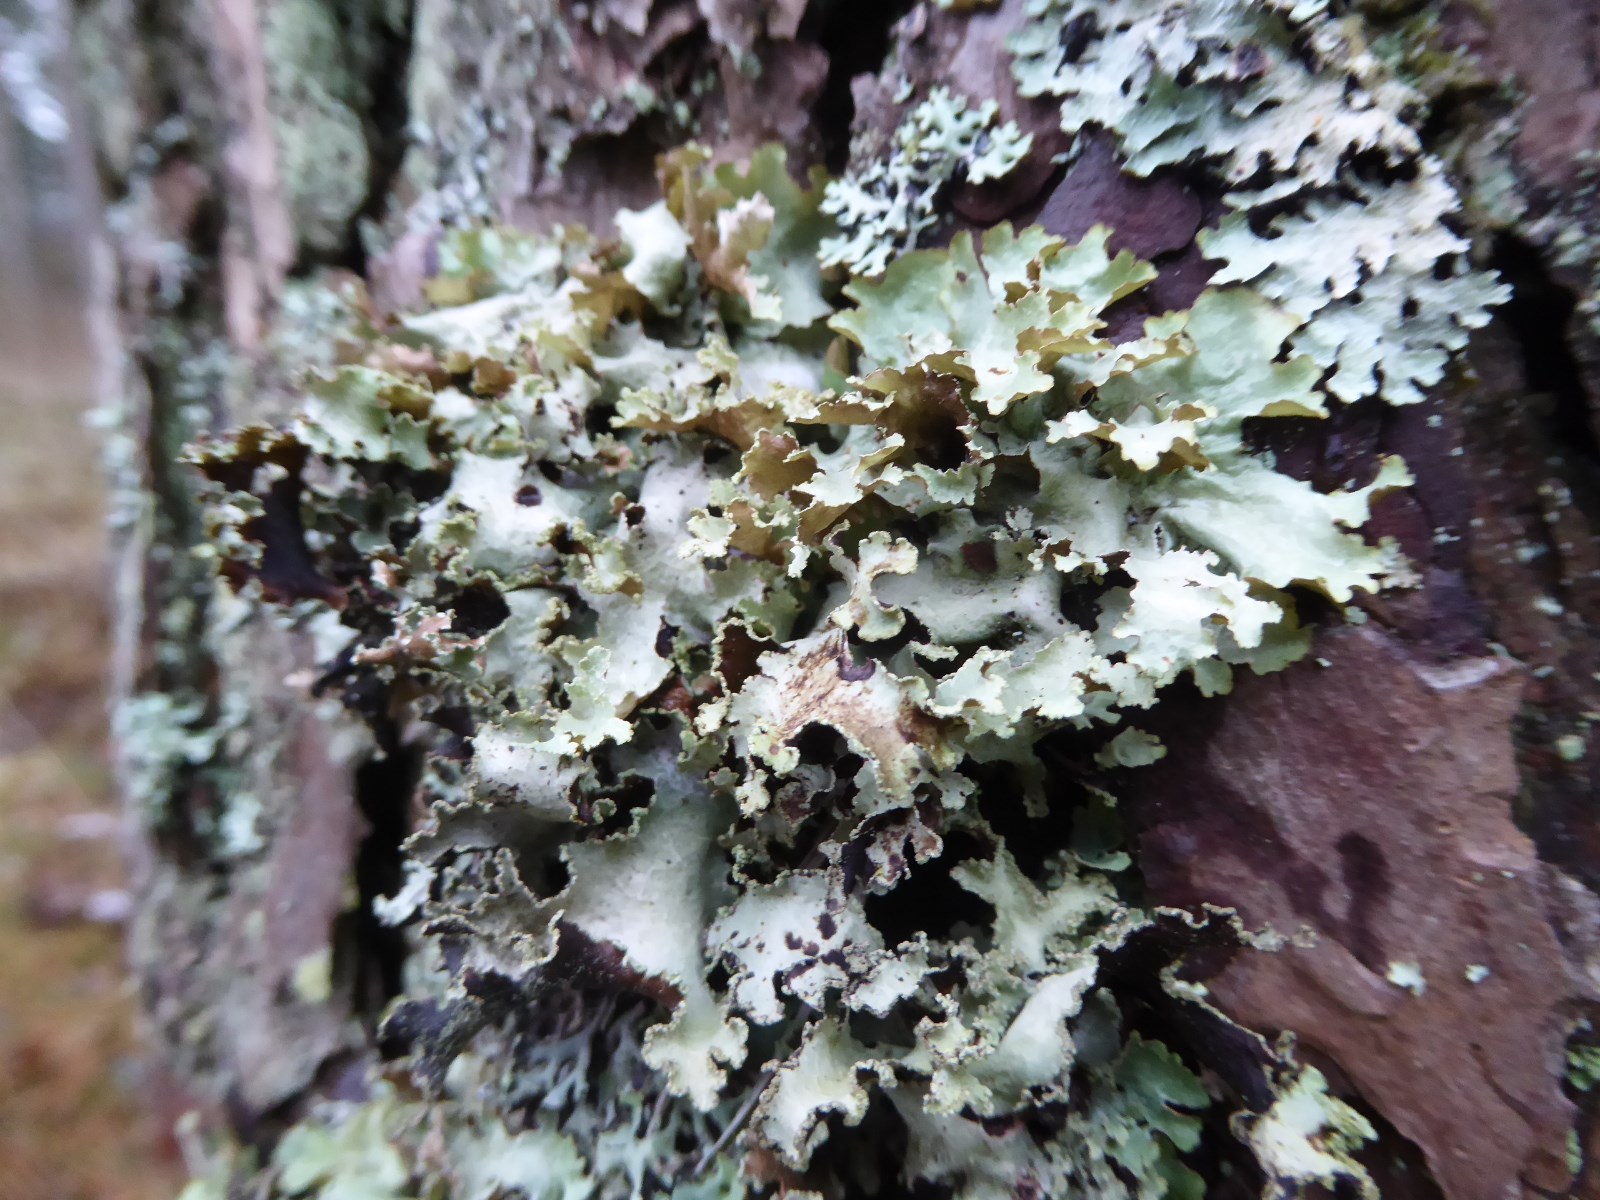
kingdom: Fungi
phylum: Ascomycota
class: Lecanoromycetes
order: Lecanorales
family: Parmeliaceae
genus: Platismatia
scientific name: Platismatia glauca
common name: blågrå papirlav
